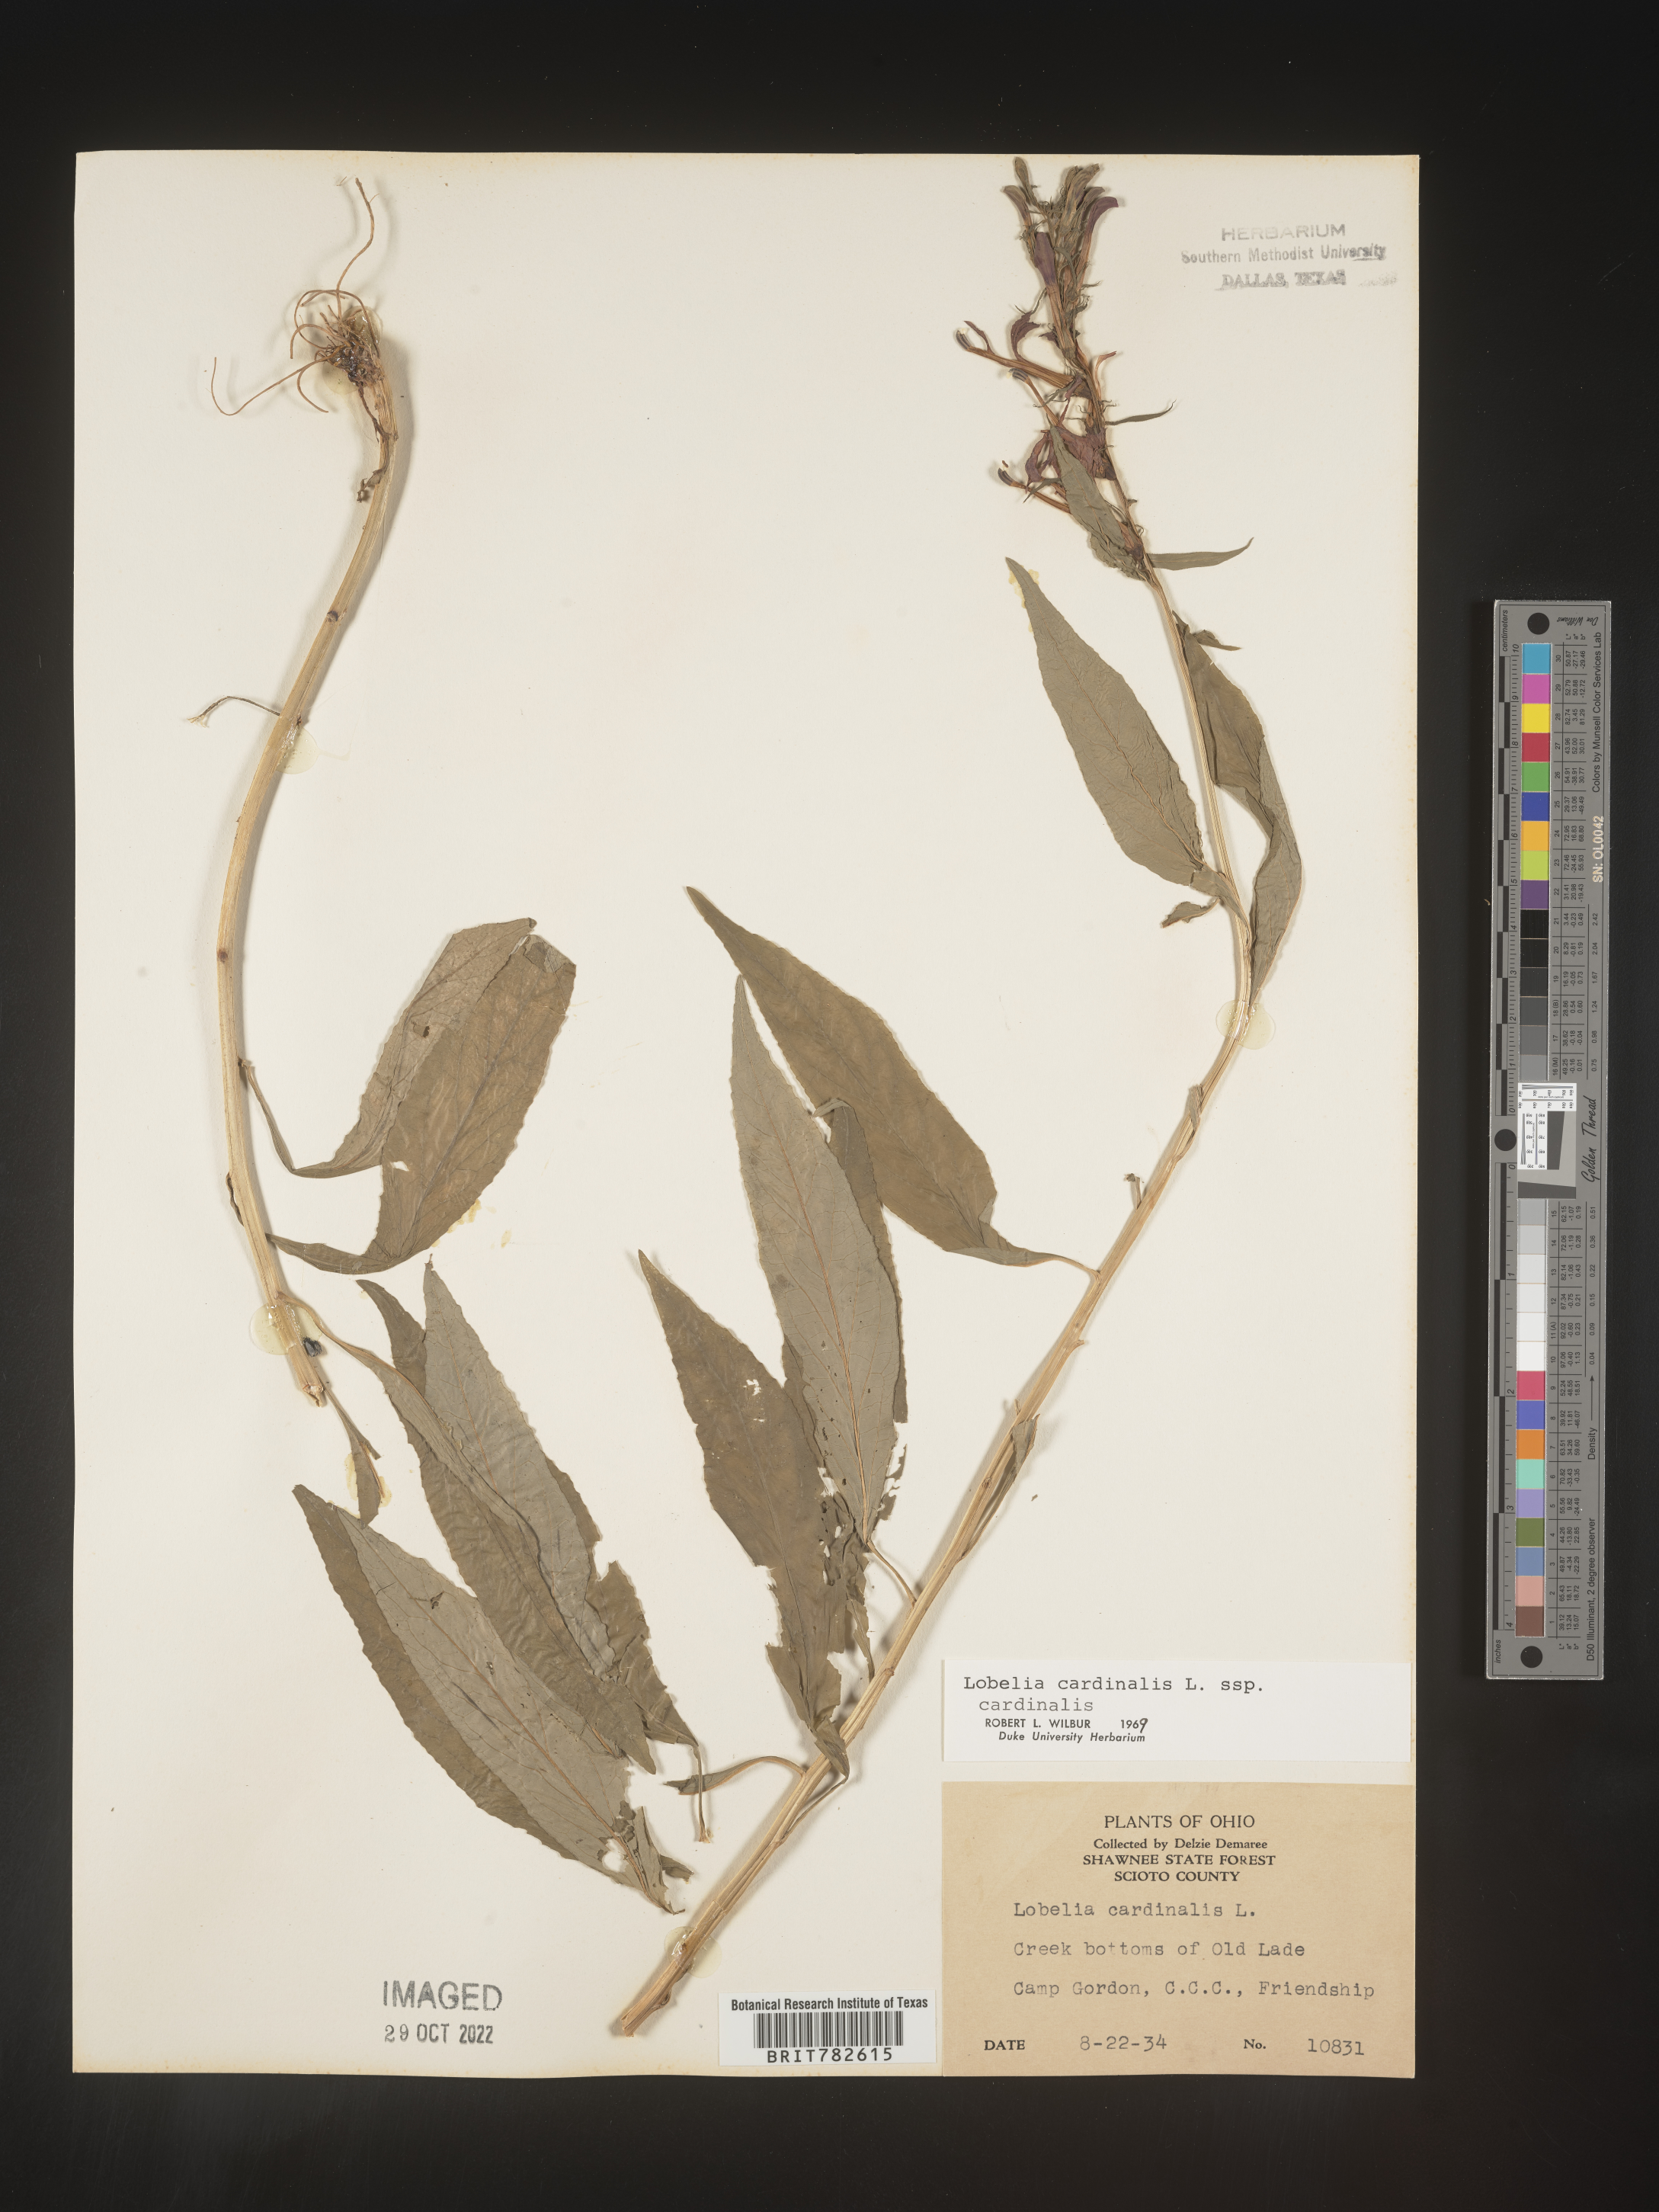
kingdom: Plantae
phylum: Tracheophyta
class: Magnoliopsida
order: Asterales
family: Campanulaceae
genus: Lobelia
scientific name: Lobelia cardinalis
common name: Cardinal flower
